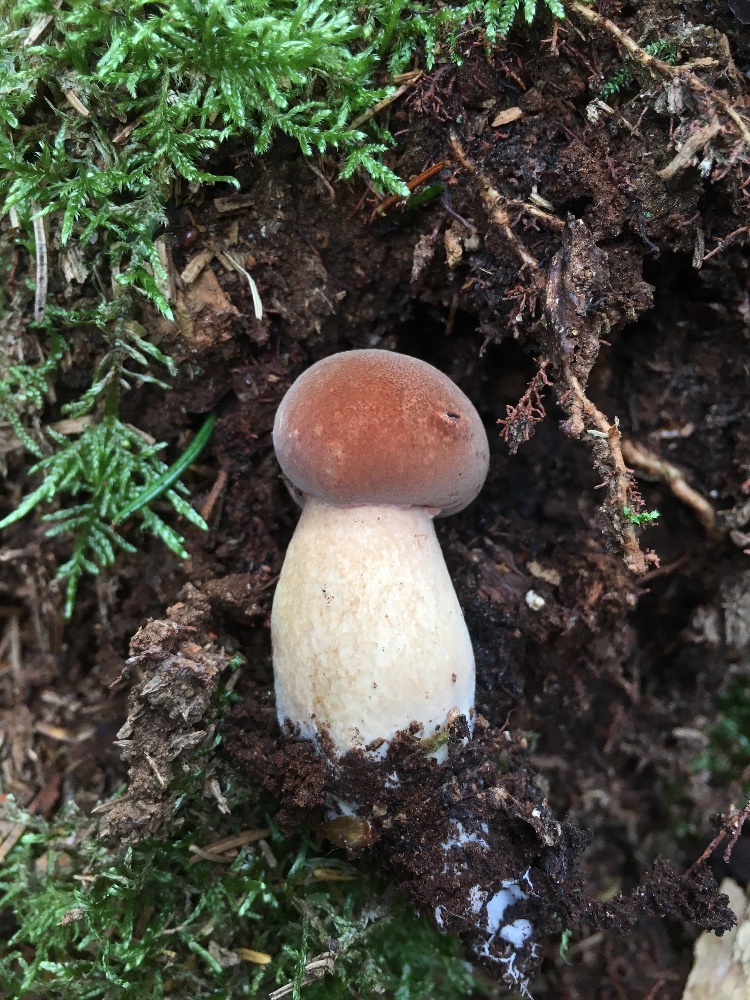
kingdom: Fungi
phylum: Basidiomycota
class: Agaricomycetes
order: Boletales
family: Boletaceae
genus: Imleria
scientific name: Imleria badia
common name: brunstokket rørhat
